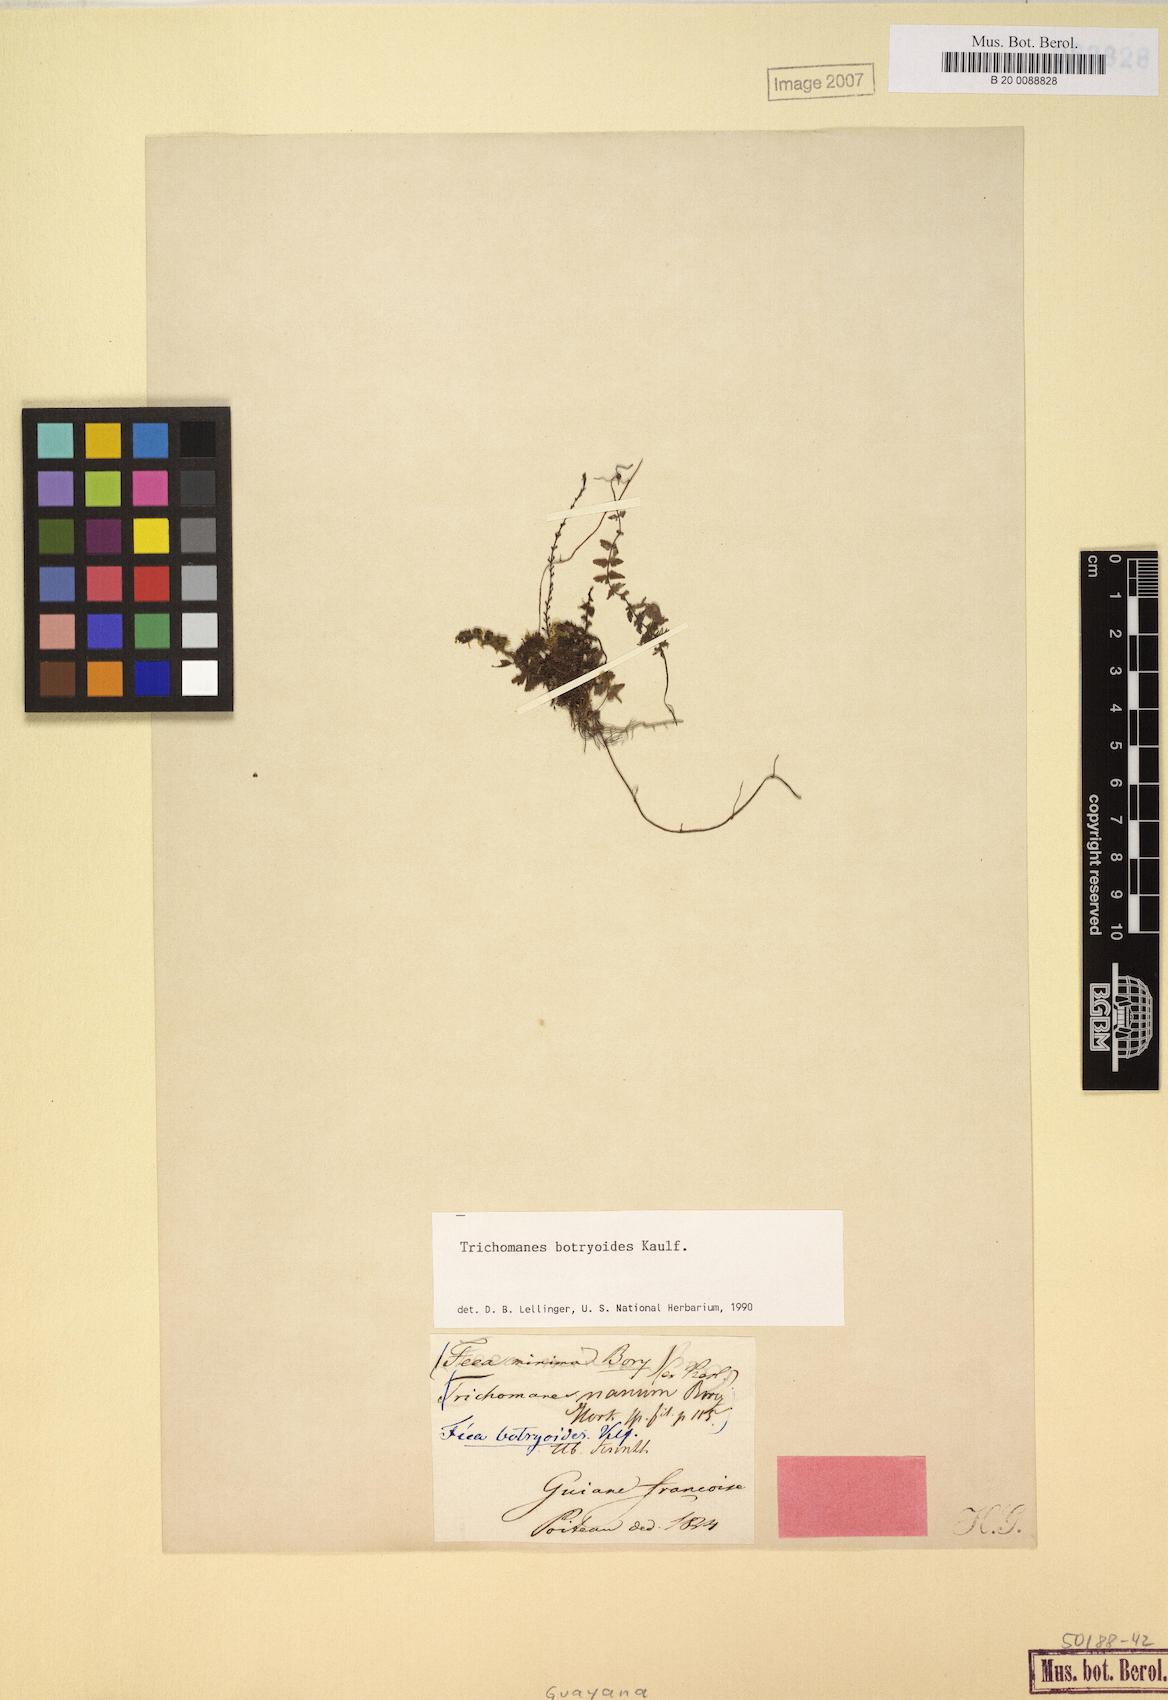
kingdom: Plantae
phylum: Tracheophyta
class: Polypodiopsida
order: Hymenophyllales
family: Hymenophyllaceae
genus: Trichomanes
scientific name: Trichomanes botryoides
